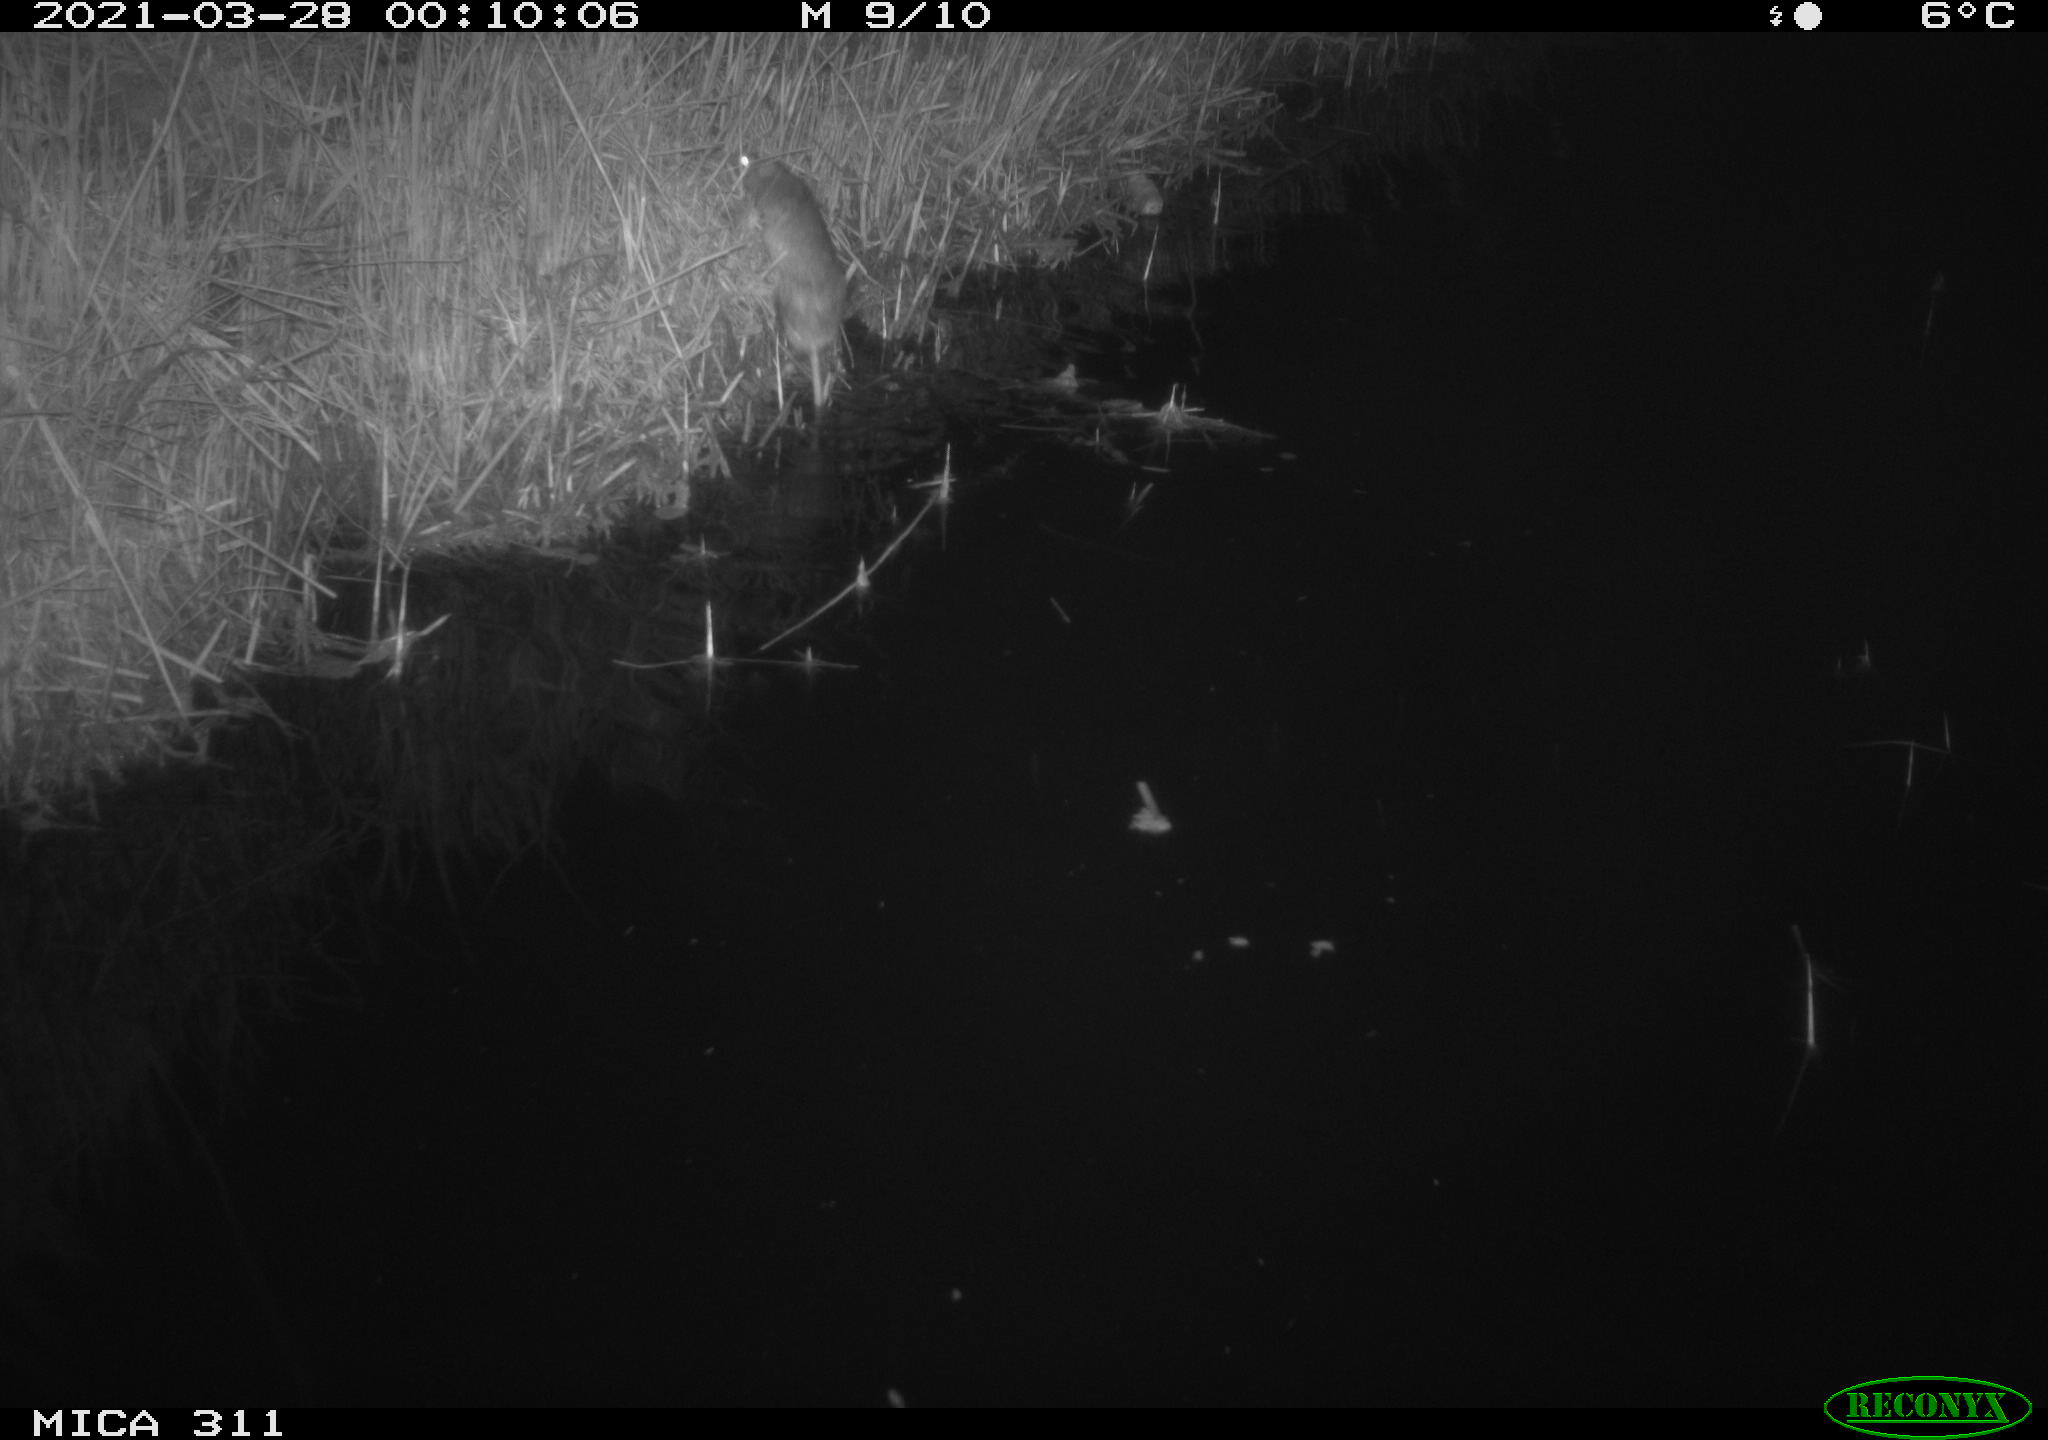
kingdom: Animalia
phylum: Chordata
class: Mammalia
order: Rodentia
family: Muridae
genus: Rattus
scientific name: Rattus norvegicus
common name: Brown rat
